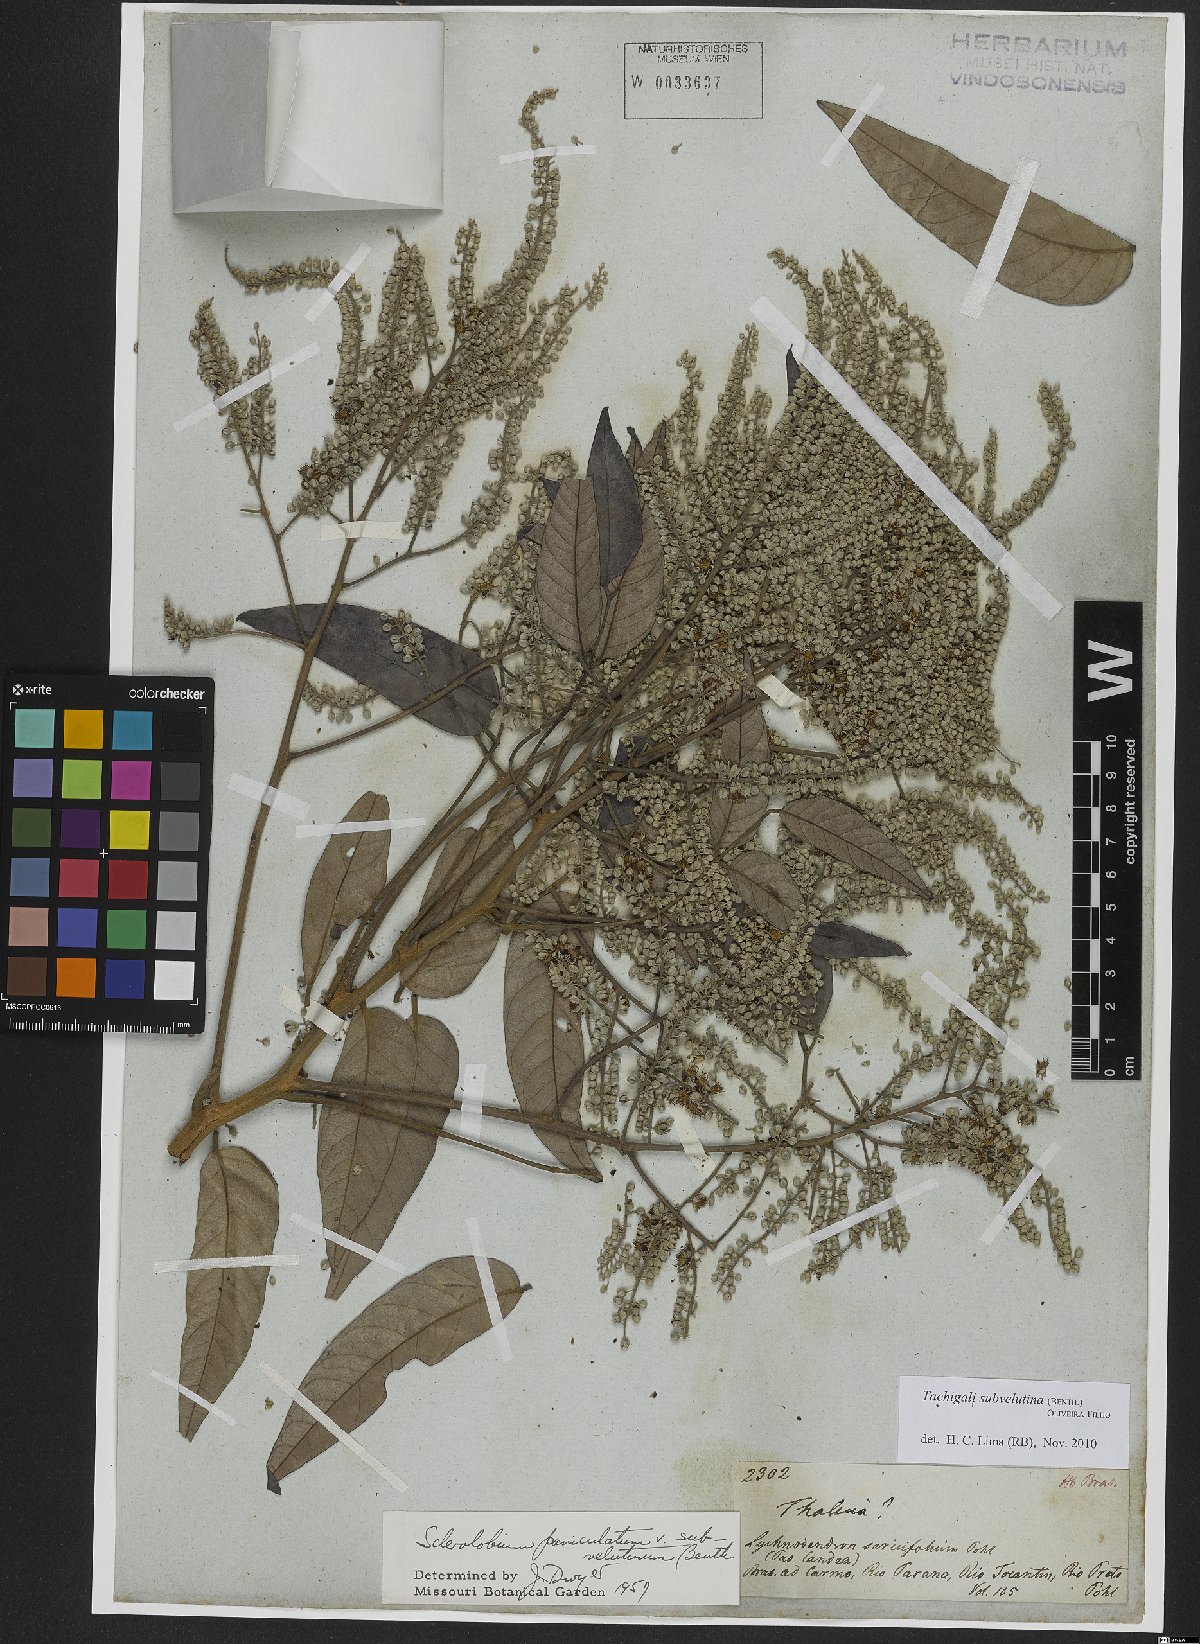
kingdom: Plantae
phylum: Tracheophyta
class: Magnoliopsida
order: Fabales
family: Fabaceae
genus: Tachigali
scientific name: Tachigali subvelutina
